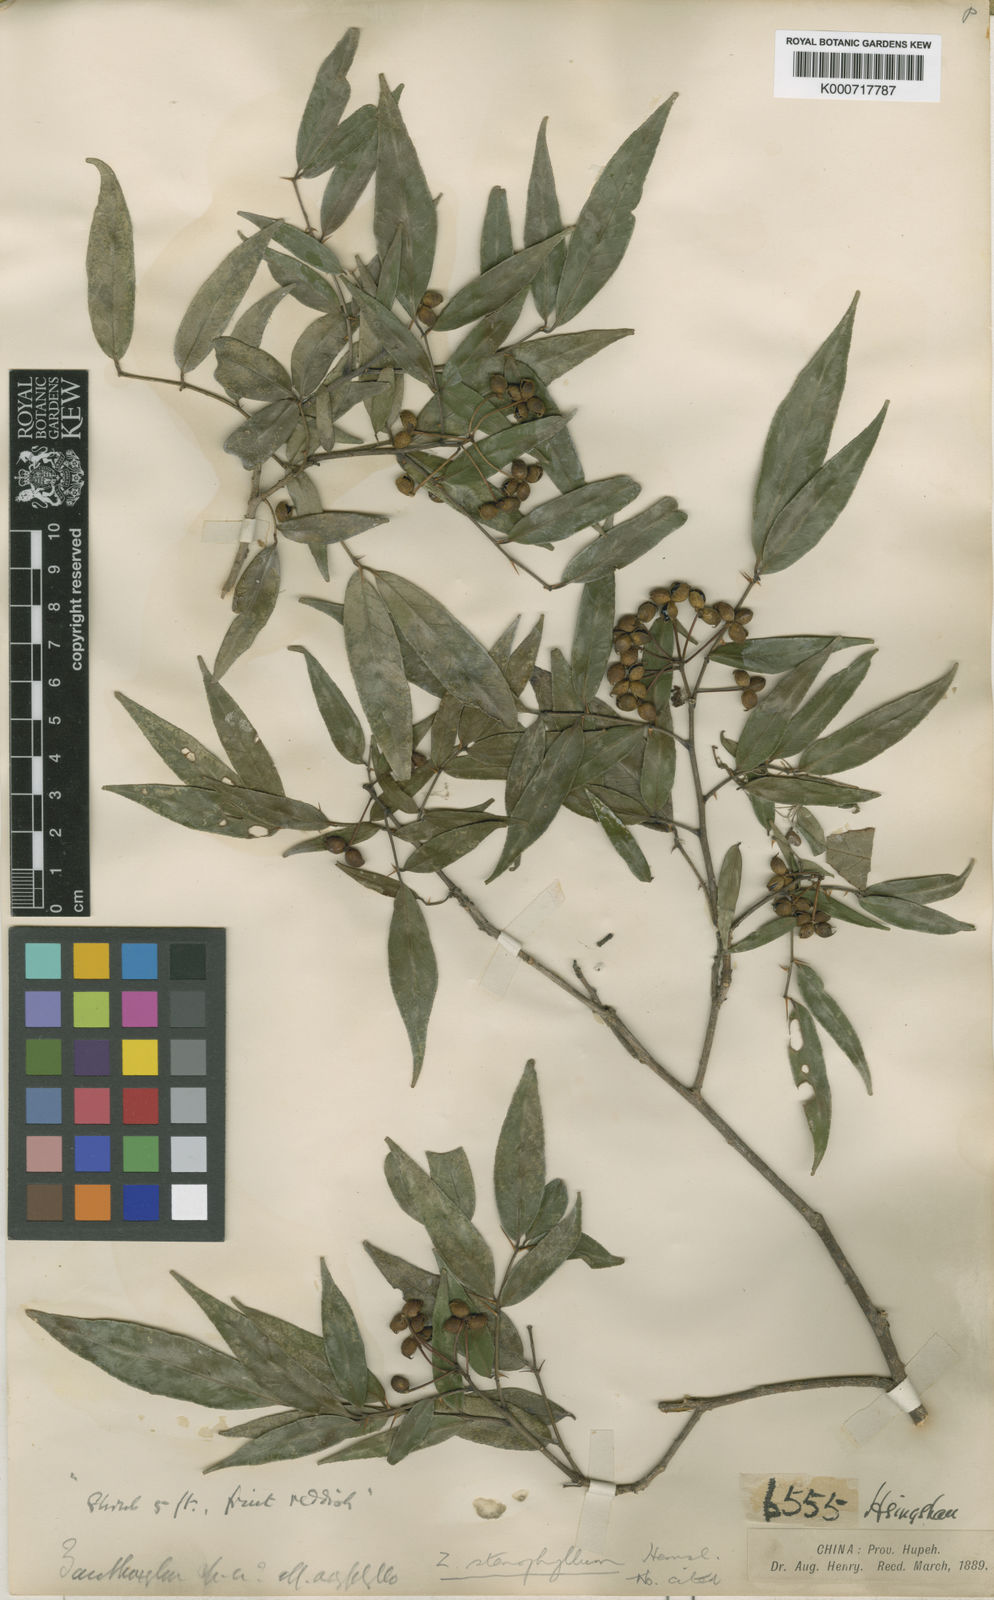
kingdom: Plantae
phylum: Tracheophyta
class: Magnoliopsida
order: Sapindales
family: Rutaceae
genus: Zanthoxylum
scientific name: Zanthoxylum stenophyllum
